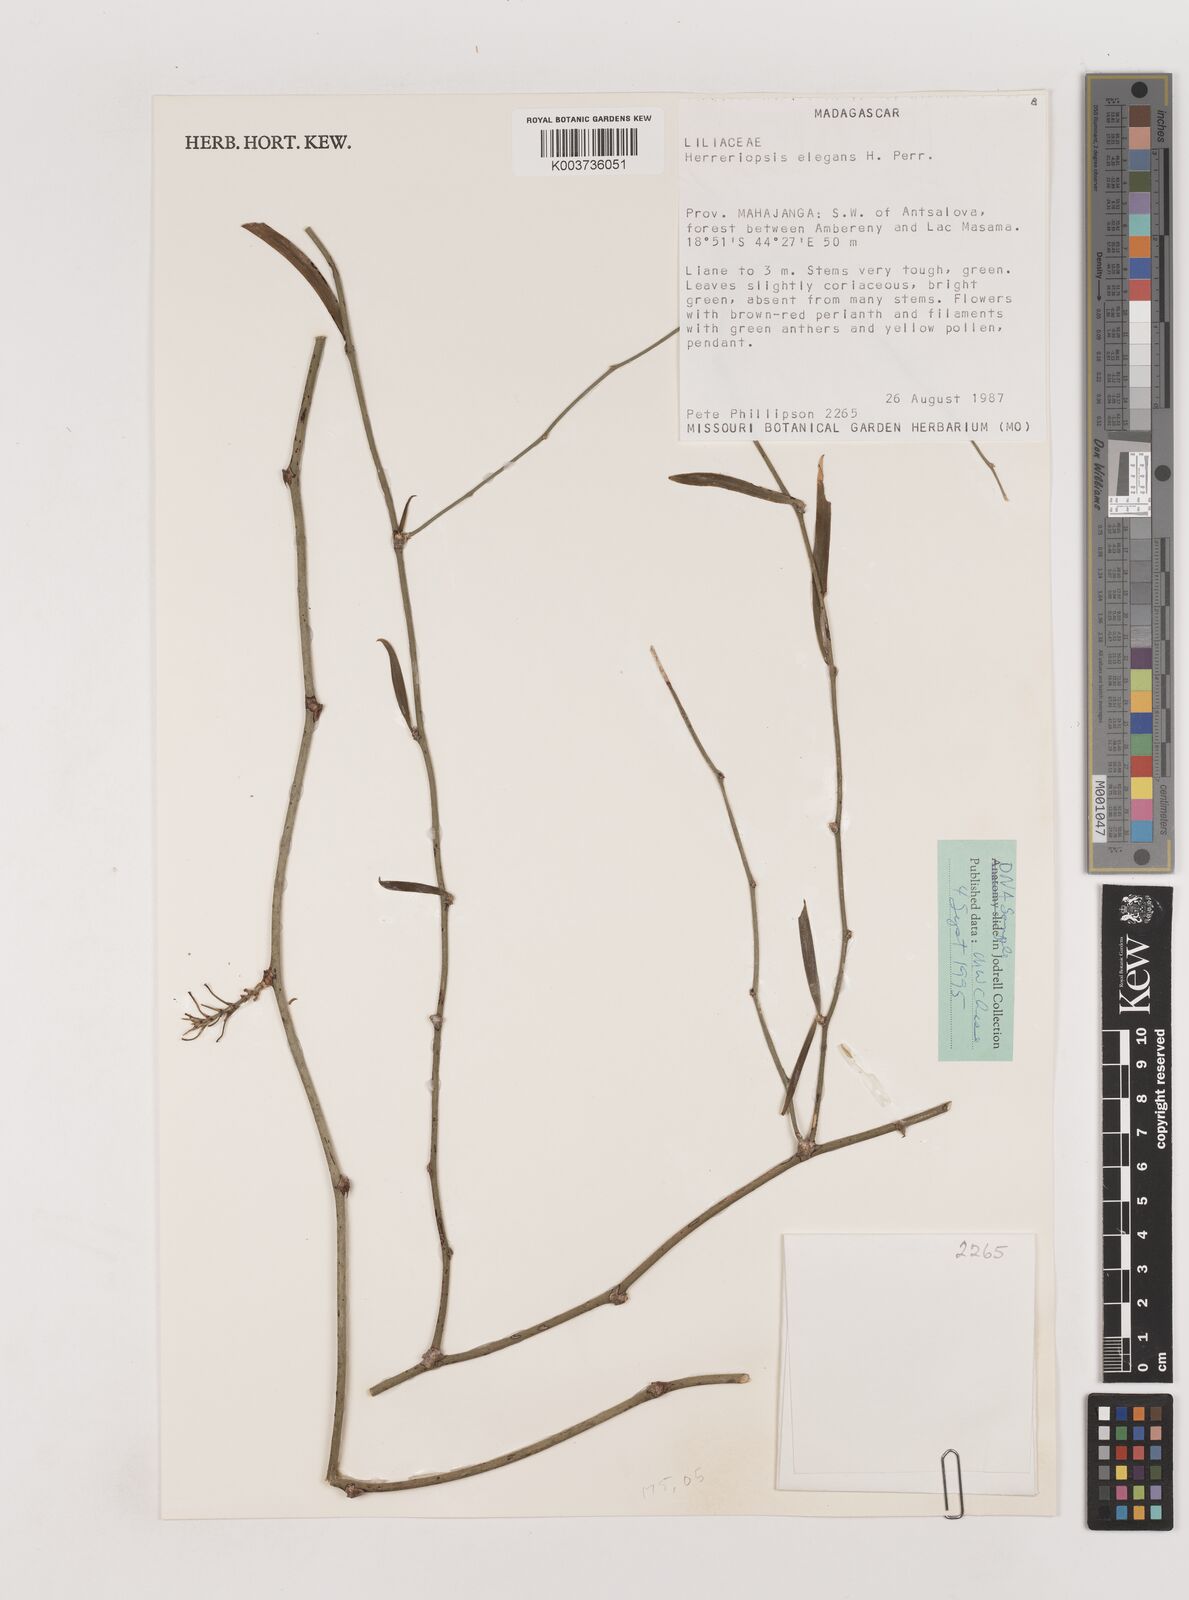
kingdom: Plantae
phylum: Tracheophyta
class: Liliopsida
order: Asparagales
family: Asparagaceae
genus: Herreriopsis
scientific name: Herreriopsis elegans
